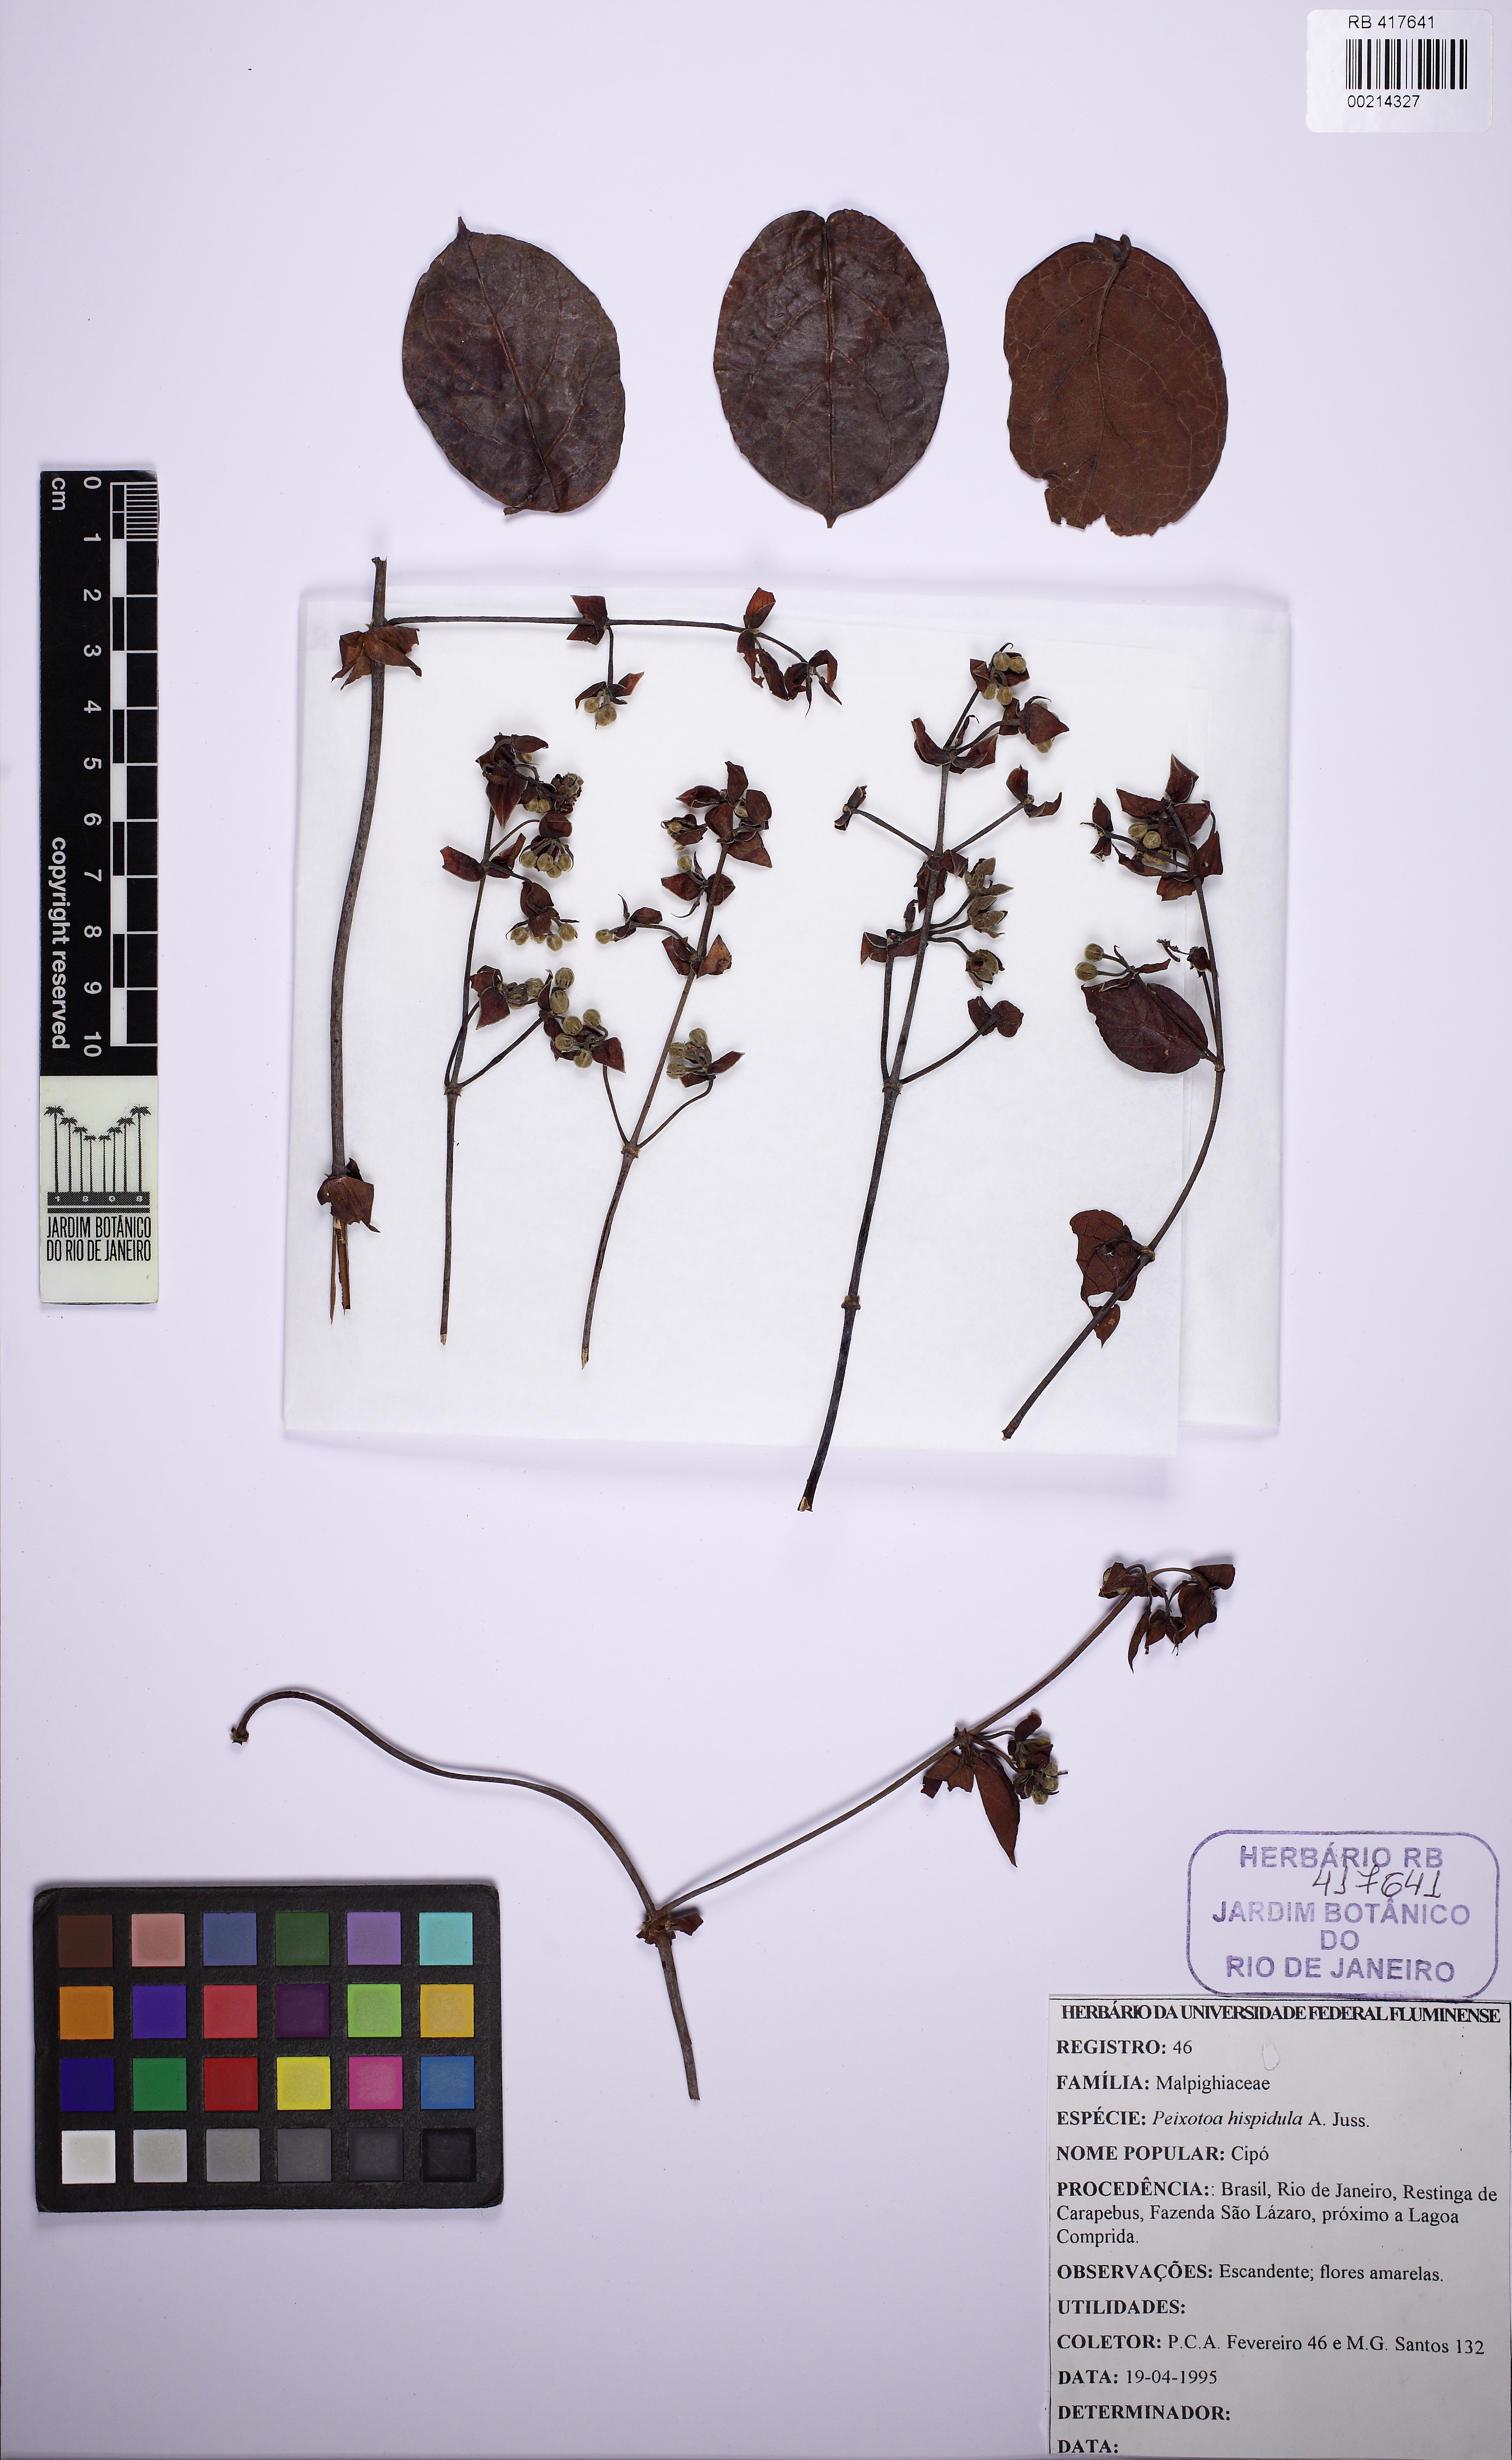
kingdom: Plantae
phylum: Tracheophyta
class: Magnoliopsida
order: Malpighiales
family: Malpighiaceae
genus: Peixotoa
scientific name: Peixotoa hispidula
